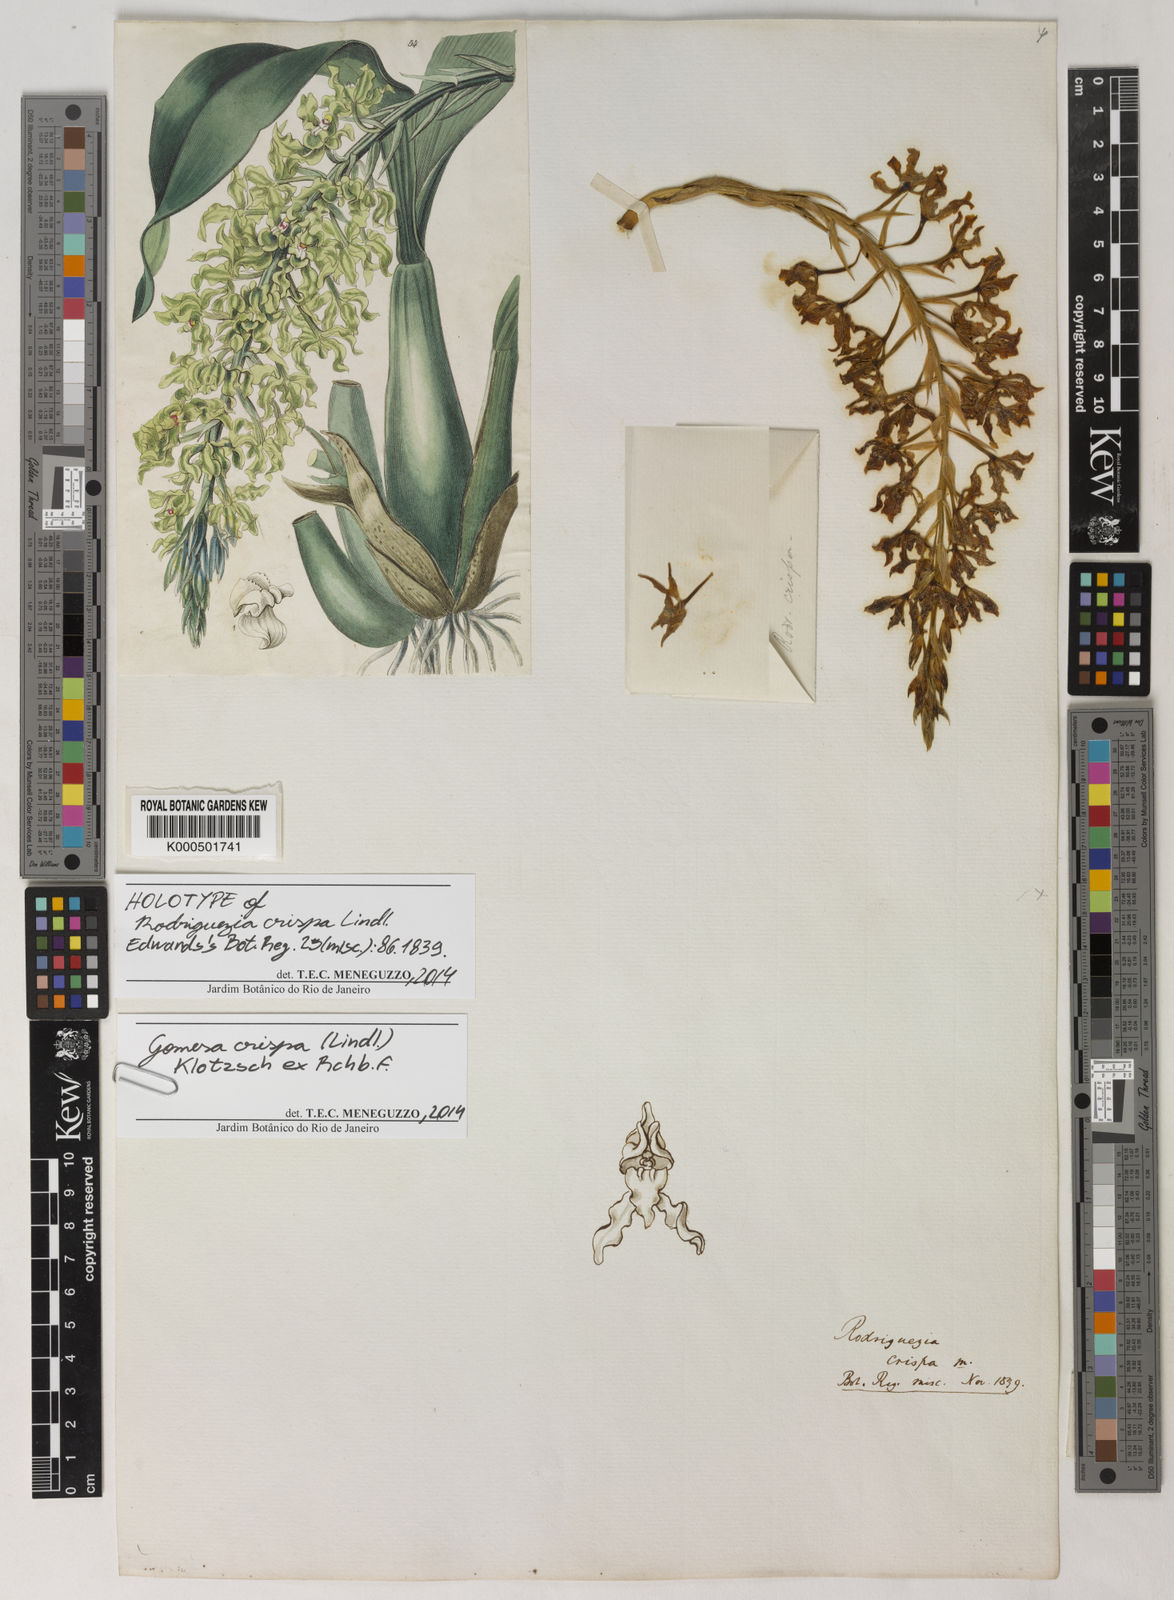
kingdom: Plantae
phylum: Tracheophyta
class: Liliopsida
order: Asparagales
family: Orchidaceae
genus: Gomesa
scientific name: Gomesa crispa
